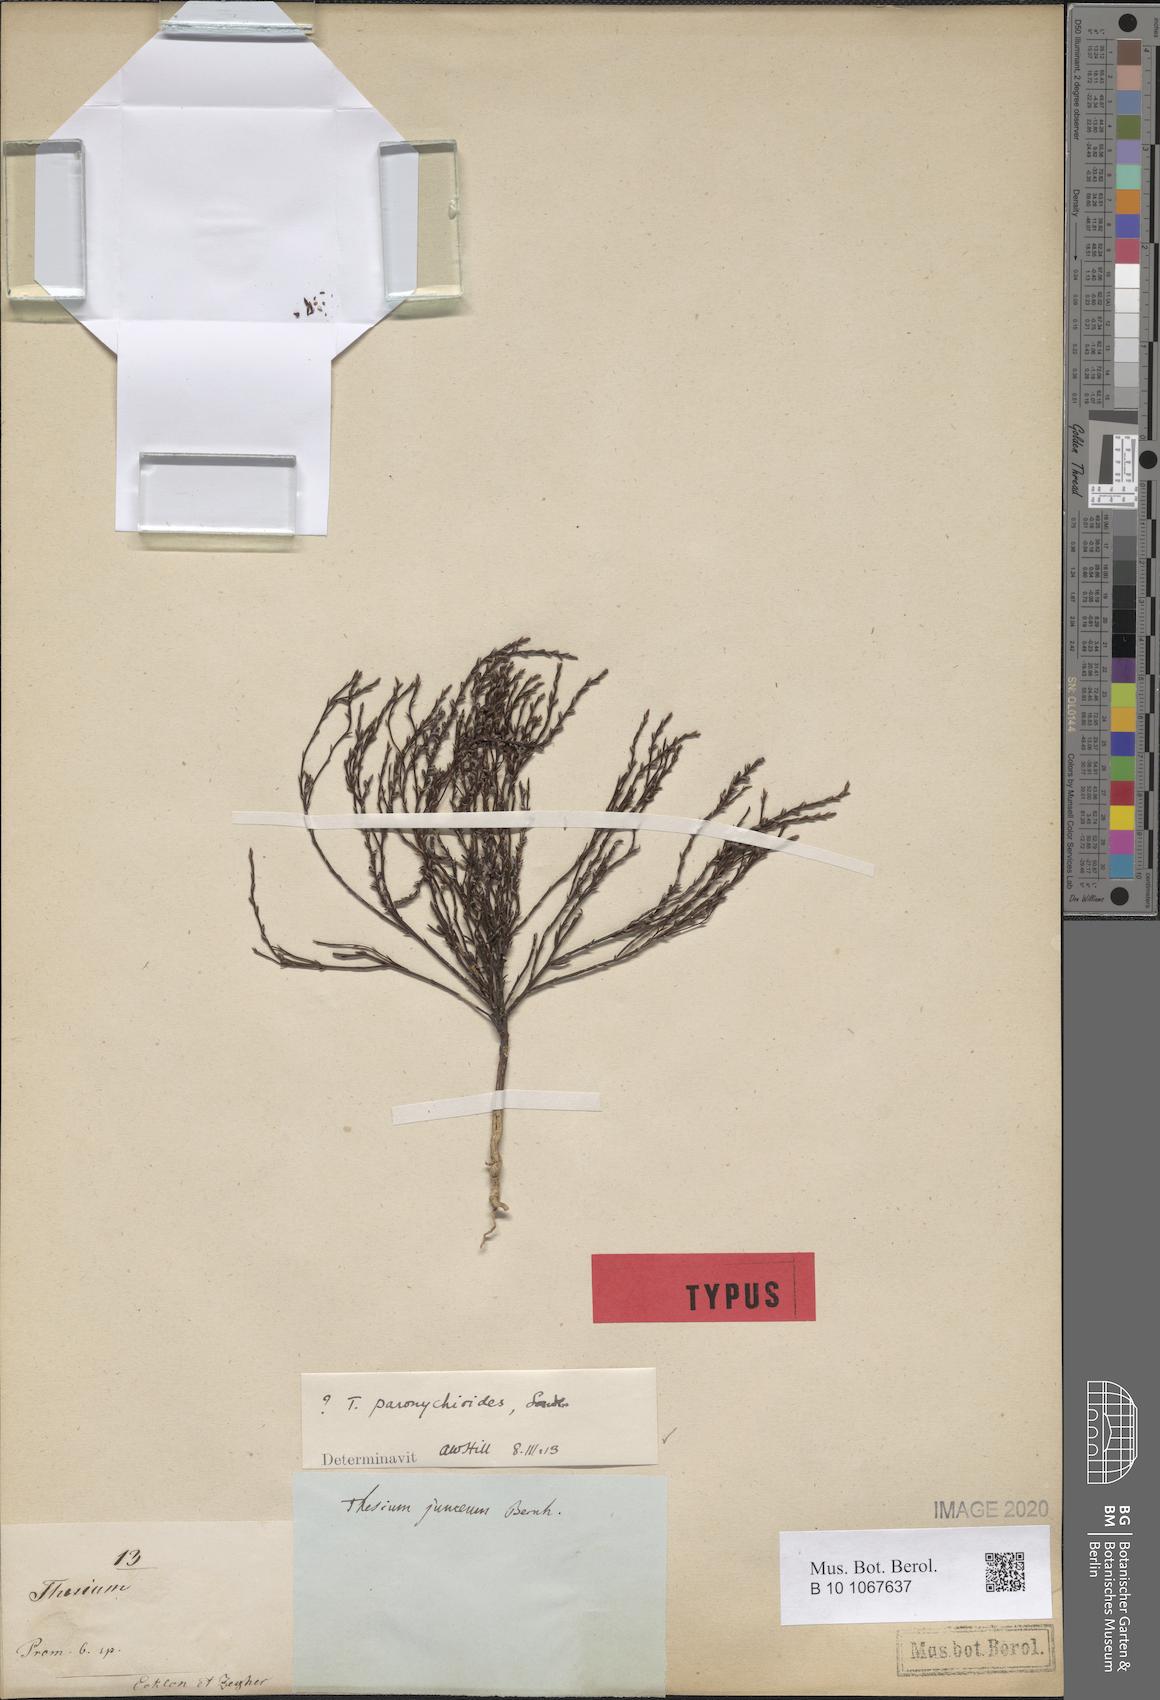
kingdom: Plantae
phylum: Tracheophyta
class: Magnoliopsida
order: Santalales
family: Thesiaceae
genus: Thesium
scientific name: Thesium paronychioides
